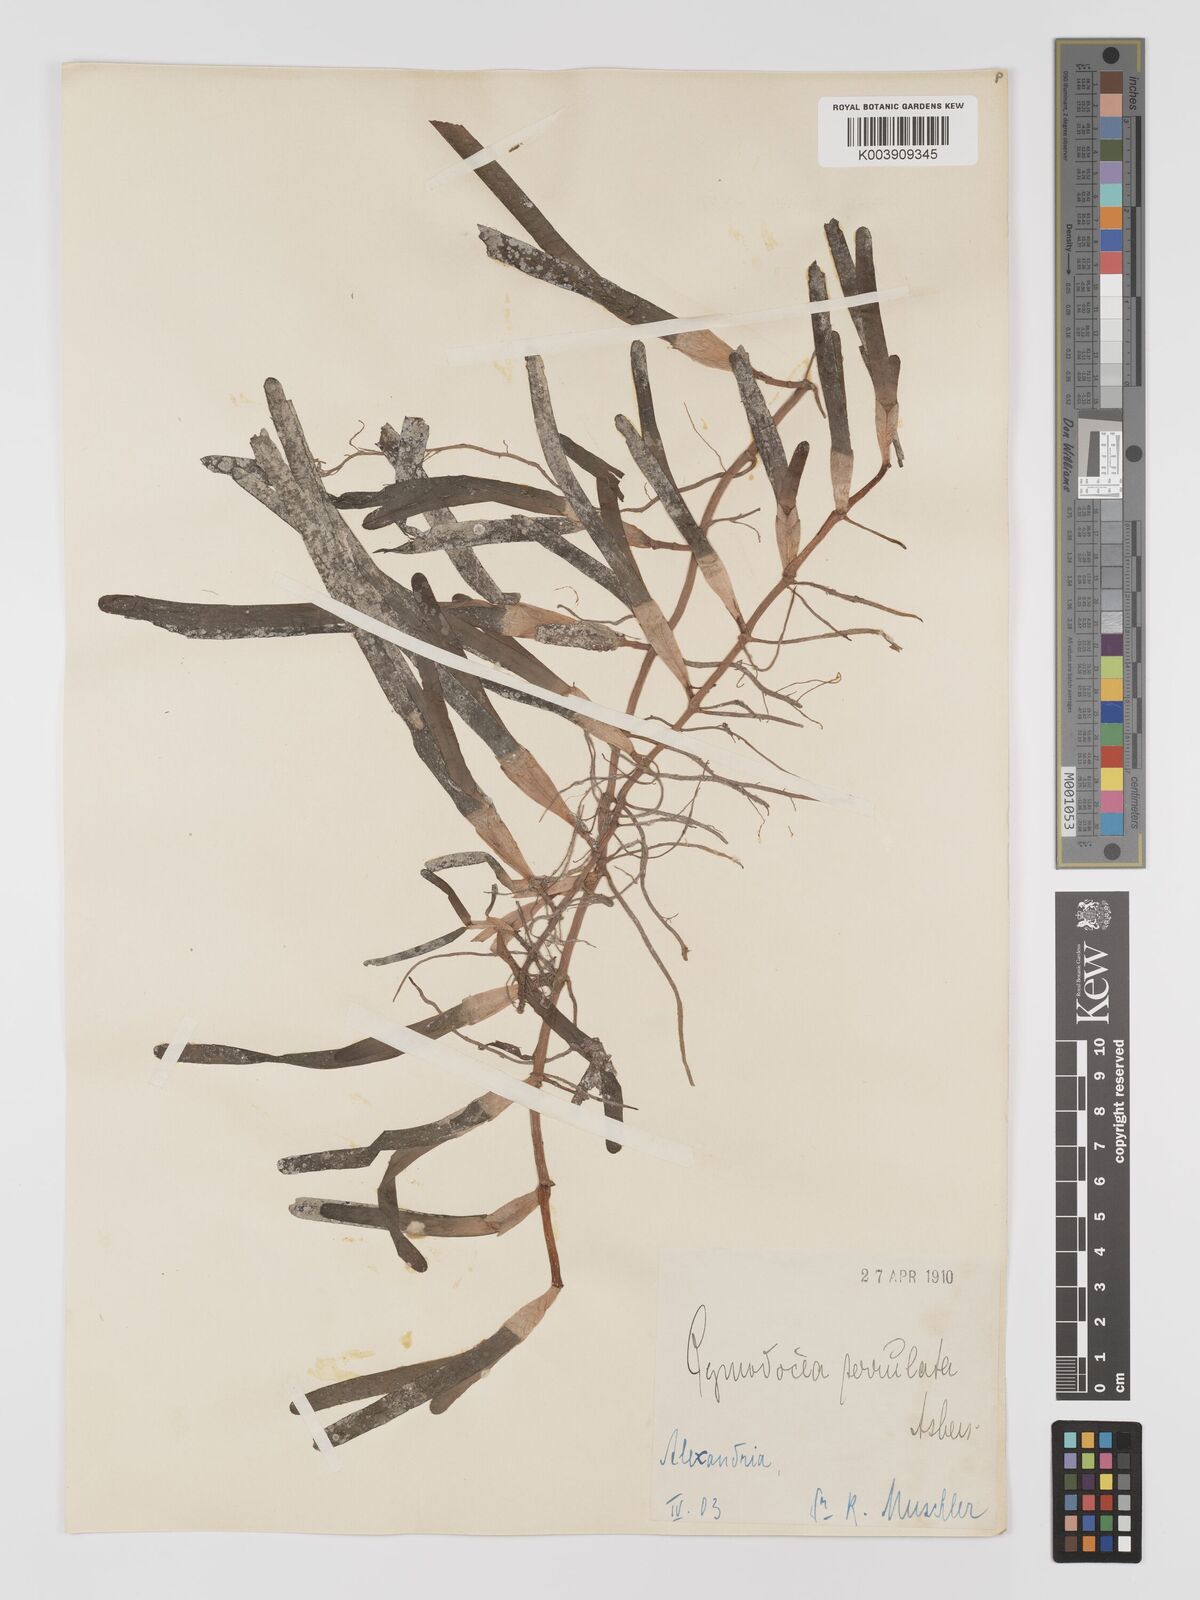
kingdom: Plantae
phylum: Tracheophyta
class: Liliopsida
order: Alismatales
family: Cymodoceaceae
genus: Oceana
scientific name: Oceana serrulata
